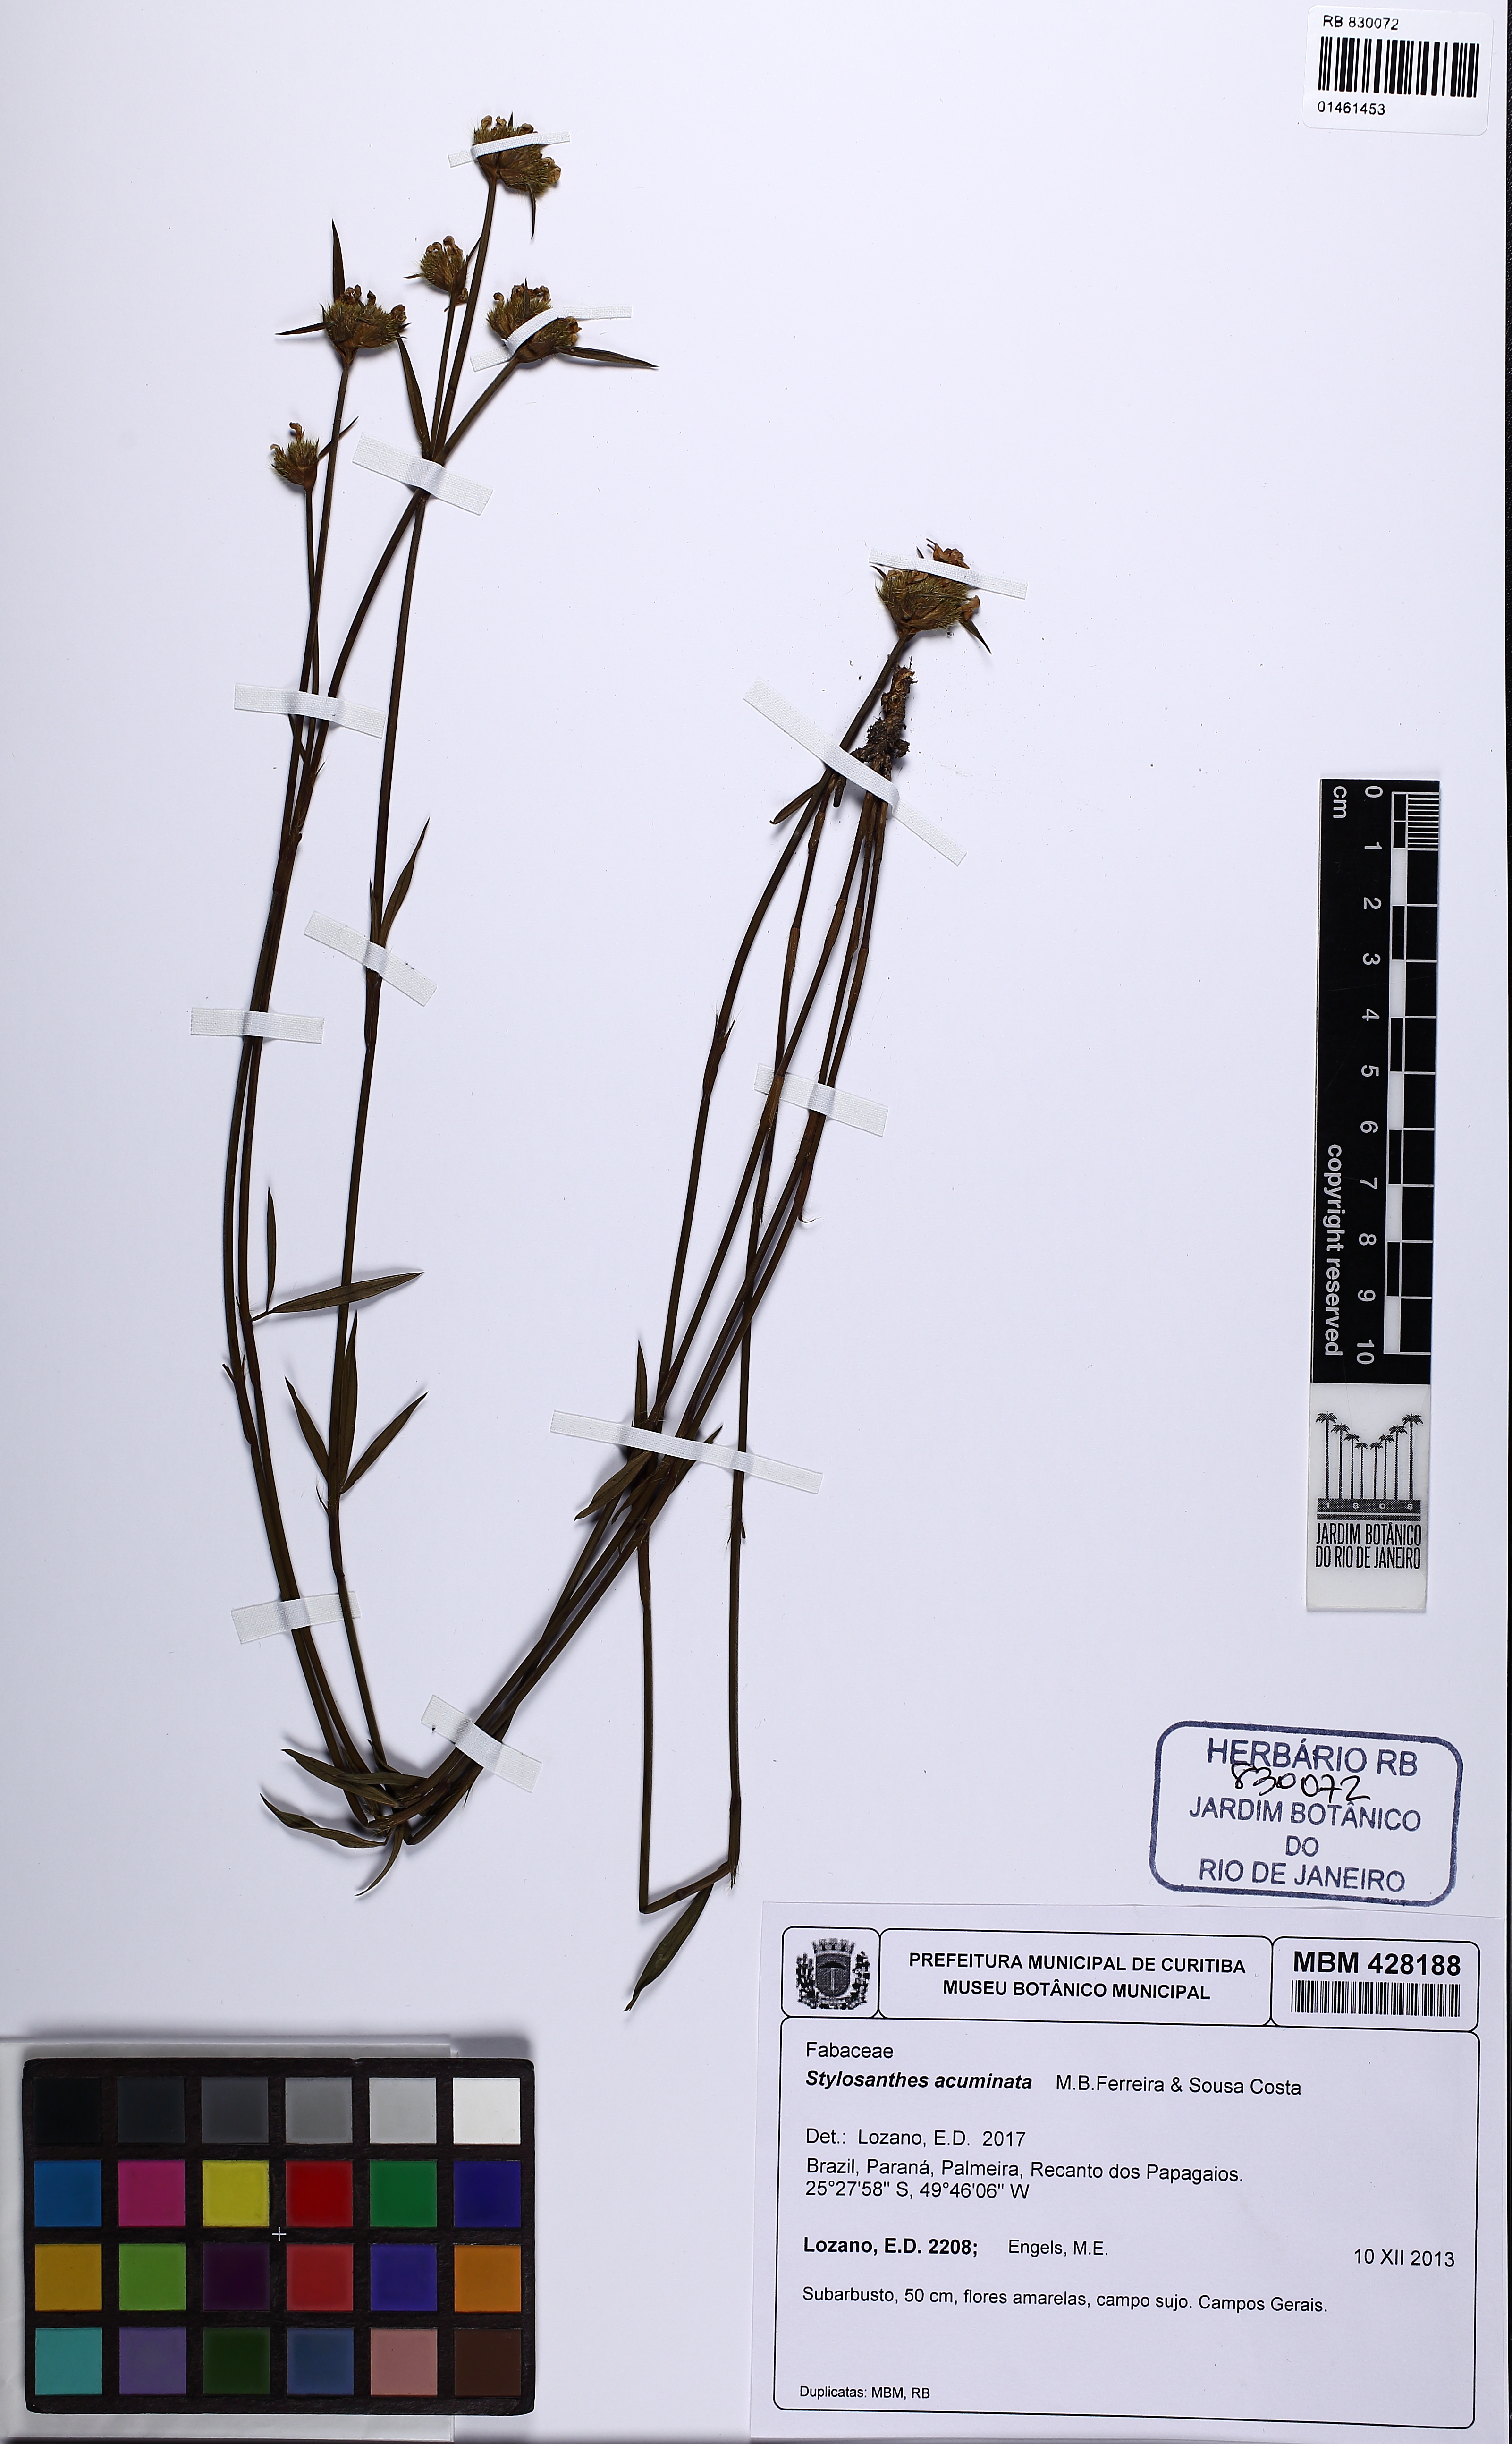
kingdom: Plantae
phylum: Tracheophyta
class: Magnoliopsida
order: Fabales
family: Fabaceae
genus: Stylosanthes
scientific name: Stylosanthes guianensis
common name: Pencil flower
